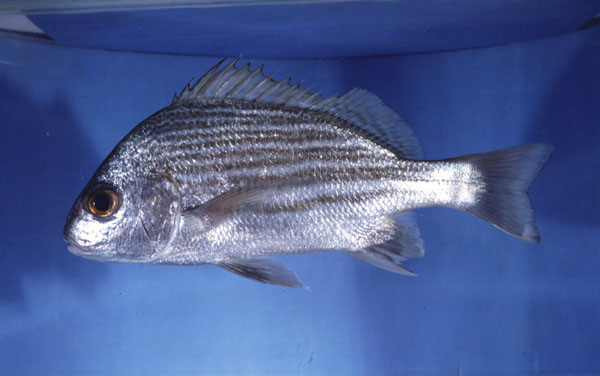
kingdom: Animalia
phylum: Chordata
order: Perciformes
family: Haemulidae
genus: Pomadasys
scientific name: Pomadasys furcatus
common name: Banded grunter
